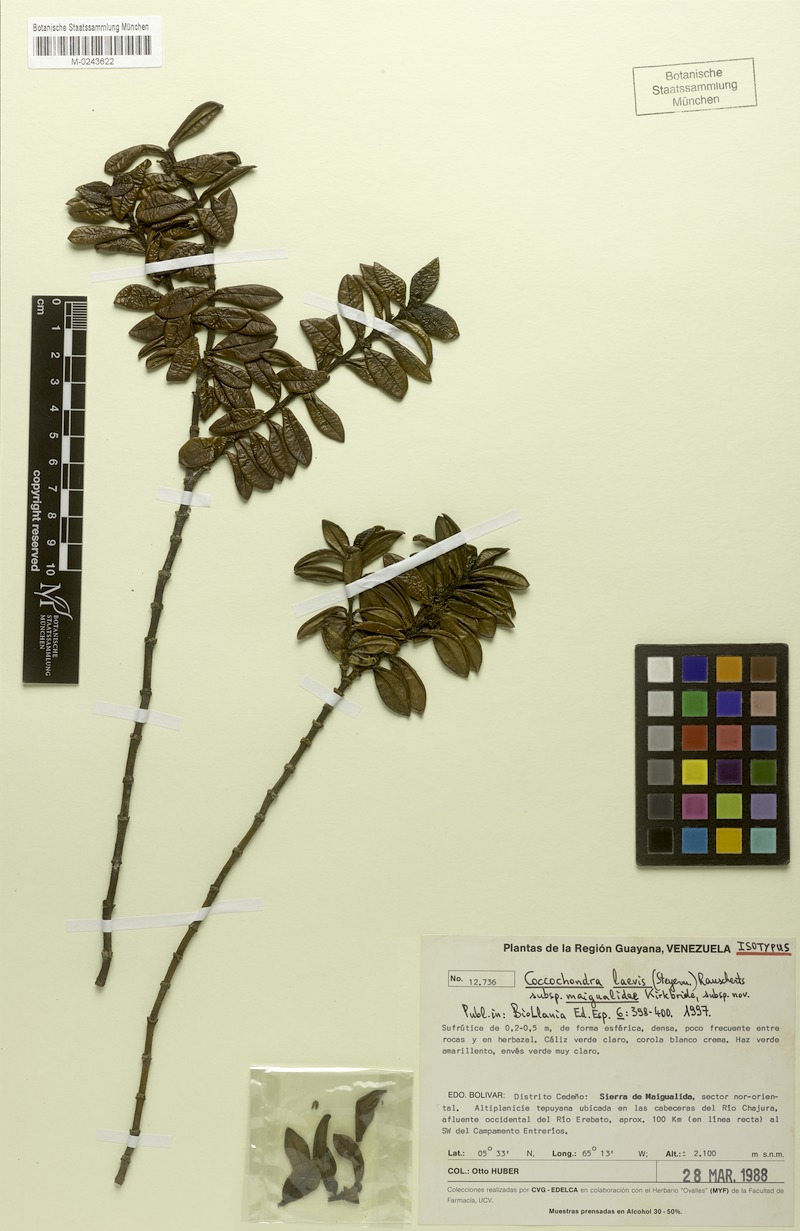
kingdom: Plantae
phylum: Tracheophyta
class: Magnoliopsida
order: Gentianales
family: Rubiaceae
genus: Coccochondra
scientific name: Coccochondra laevis
